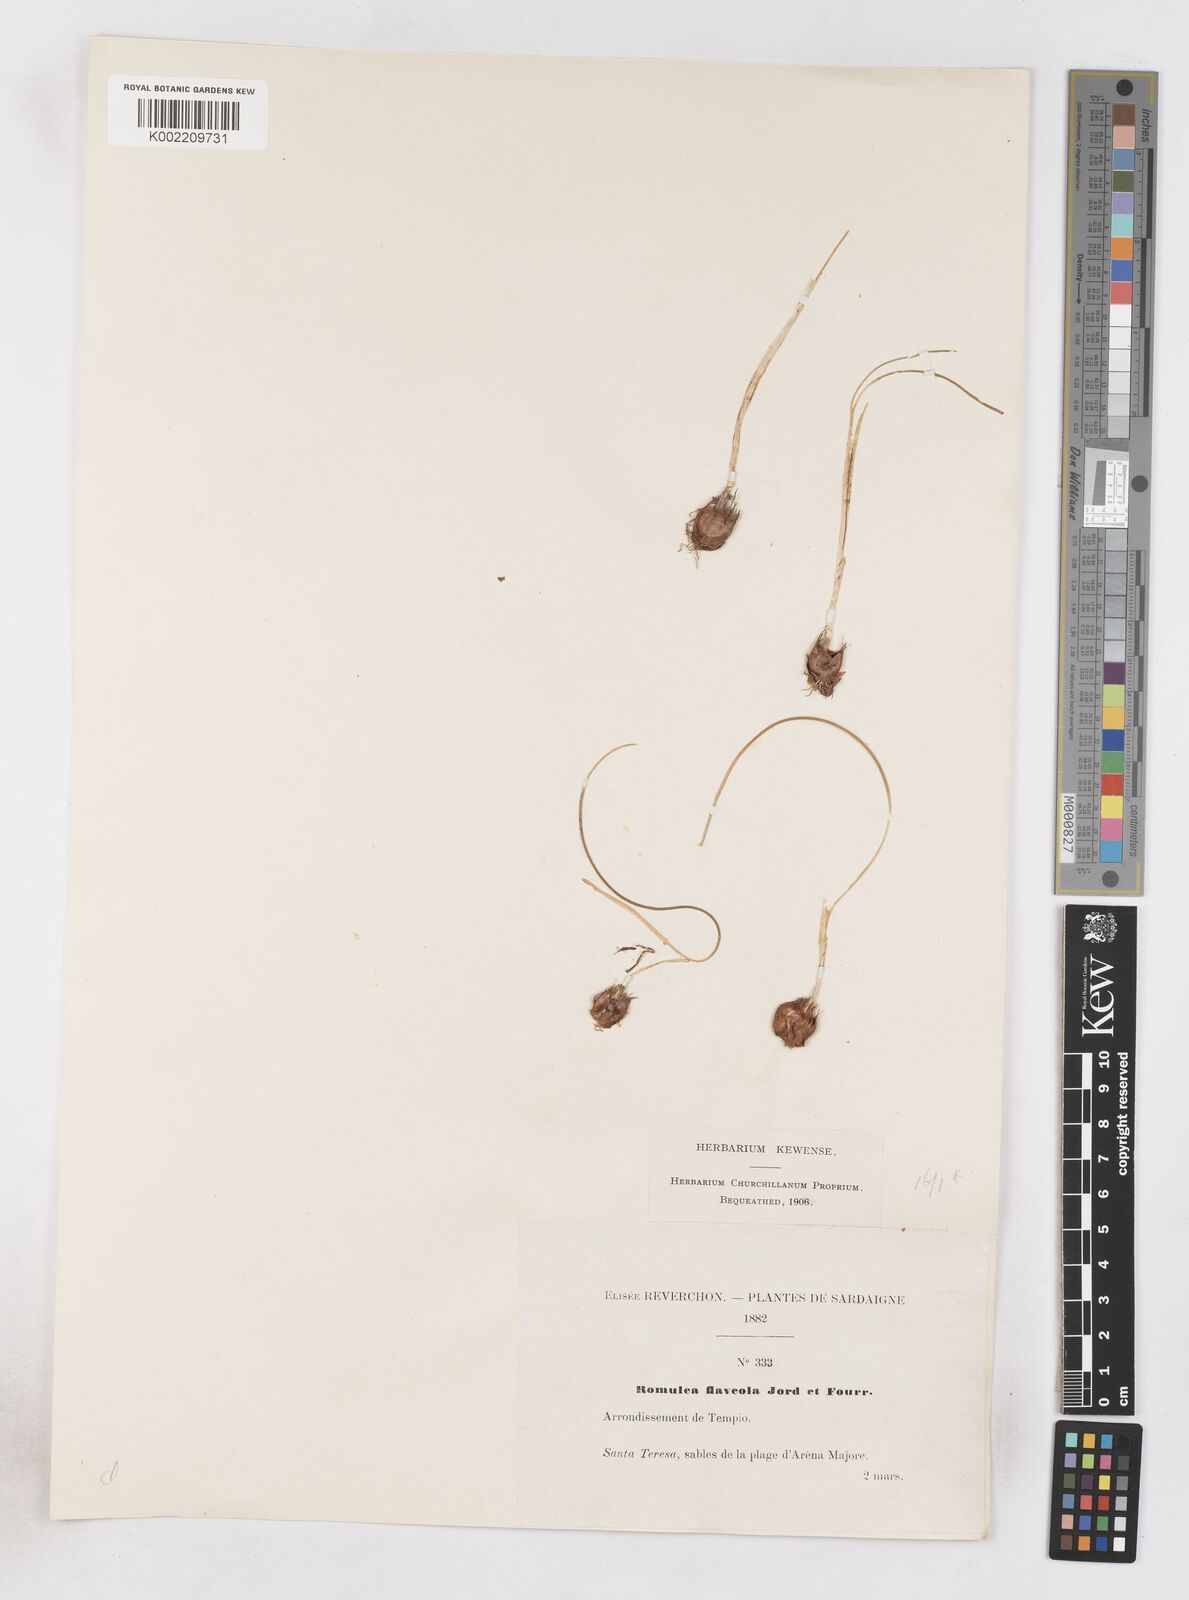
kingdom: Plantae
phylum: Tracheophyta
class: Liliopsida
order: Asparagales
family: Iridaceae
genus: Romulea
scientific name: Romulea columnae
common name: Sand-crocus
